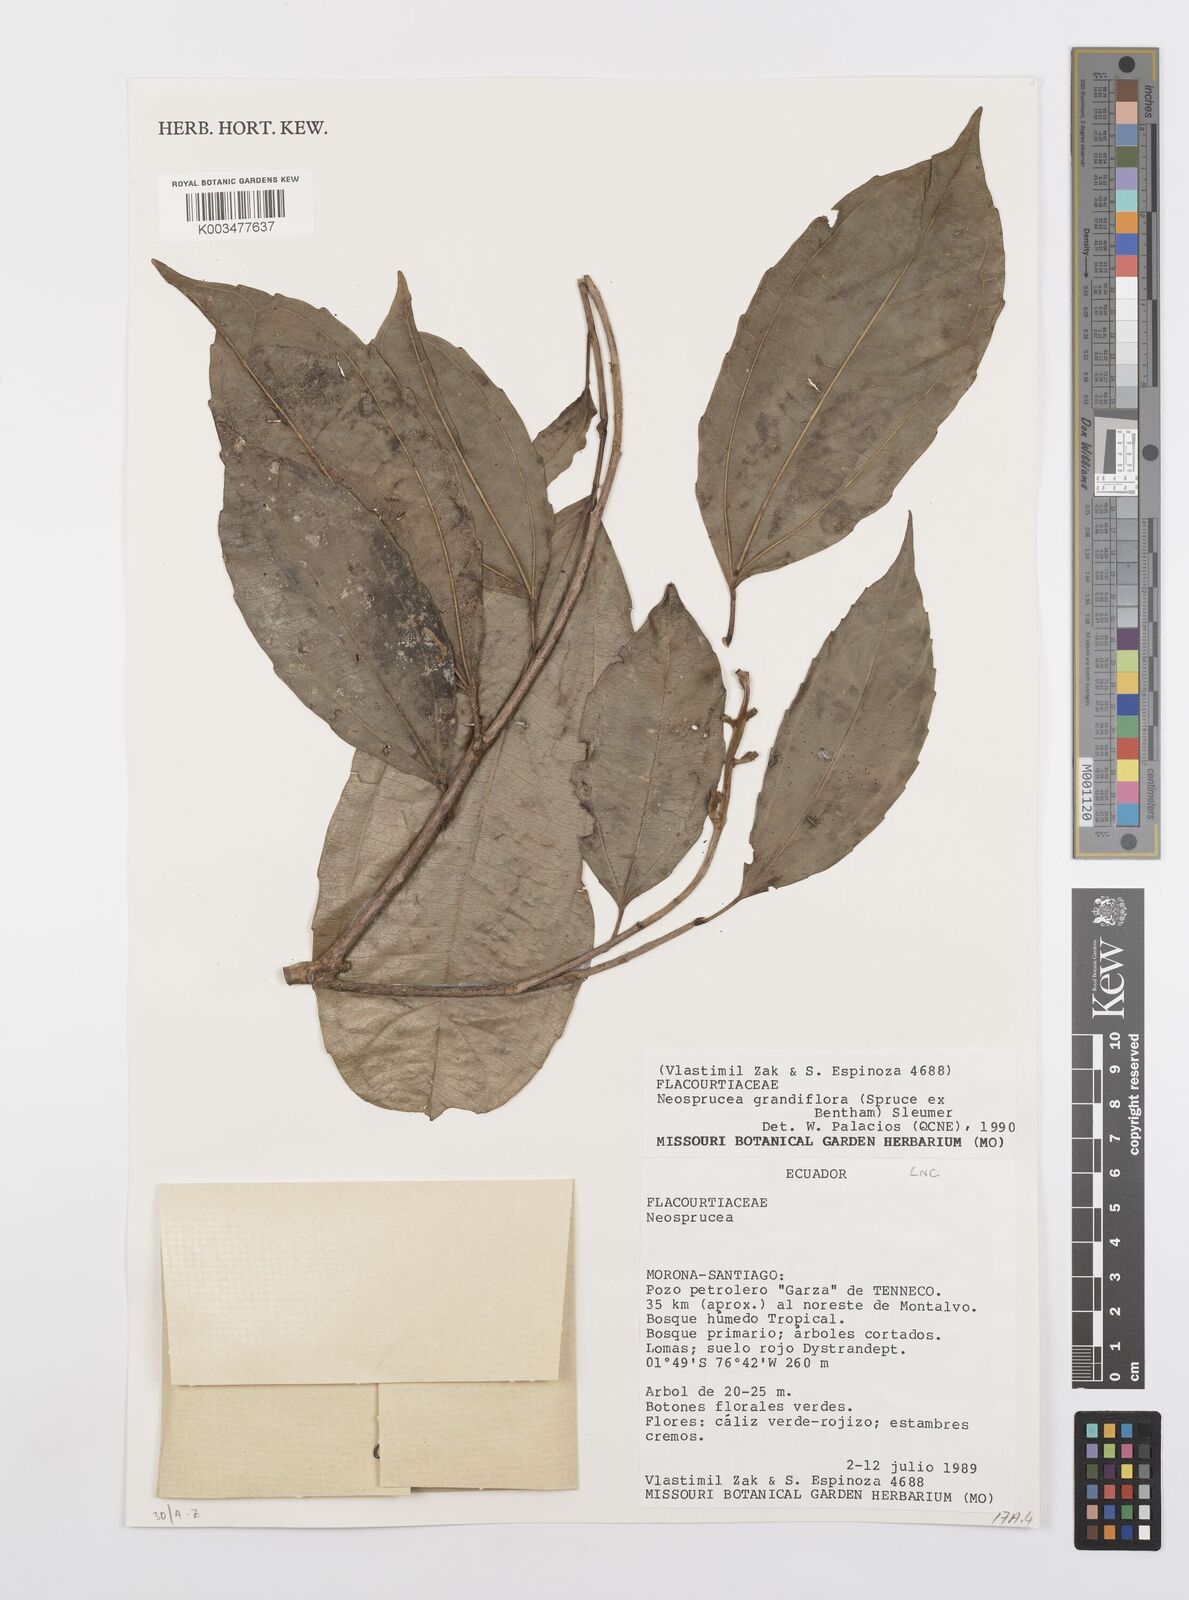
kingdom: Plantae
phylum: Tracheophyta
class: Magnoliopsida
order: Malpighiales
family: Salicaceae
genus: Neosprucea
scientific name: Neosprucea grandiflora
